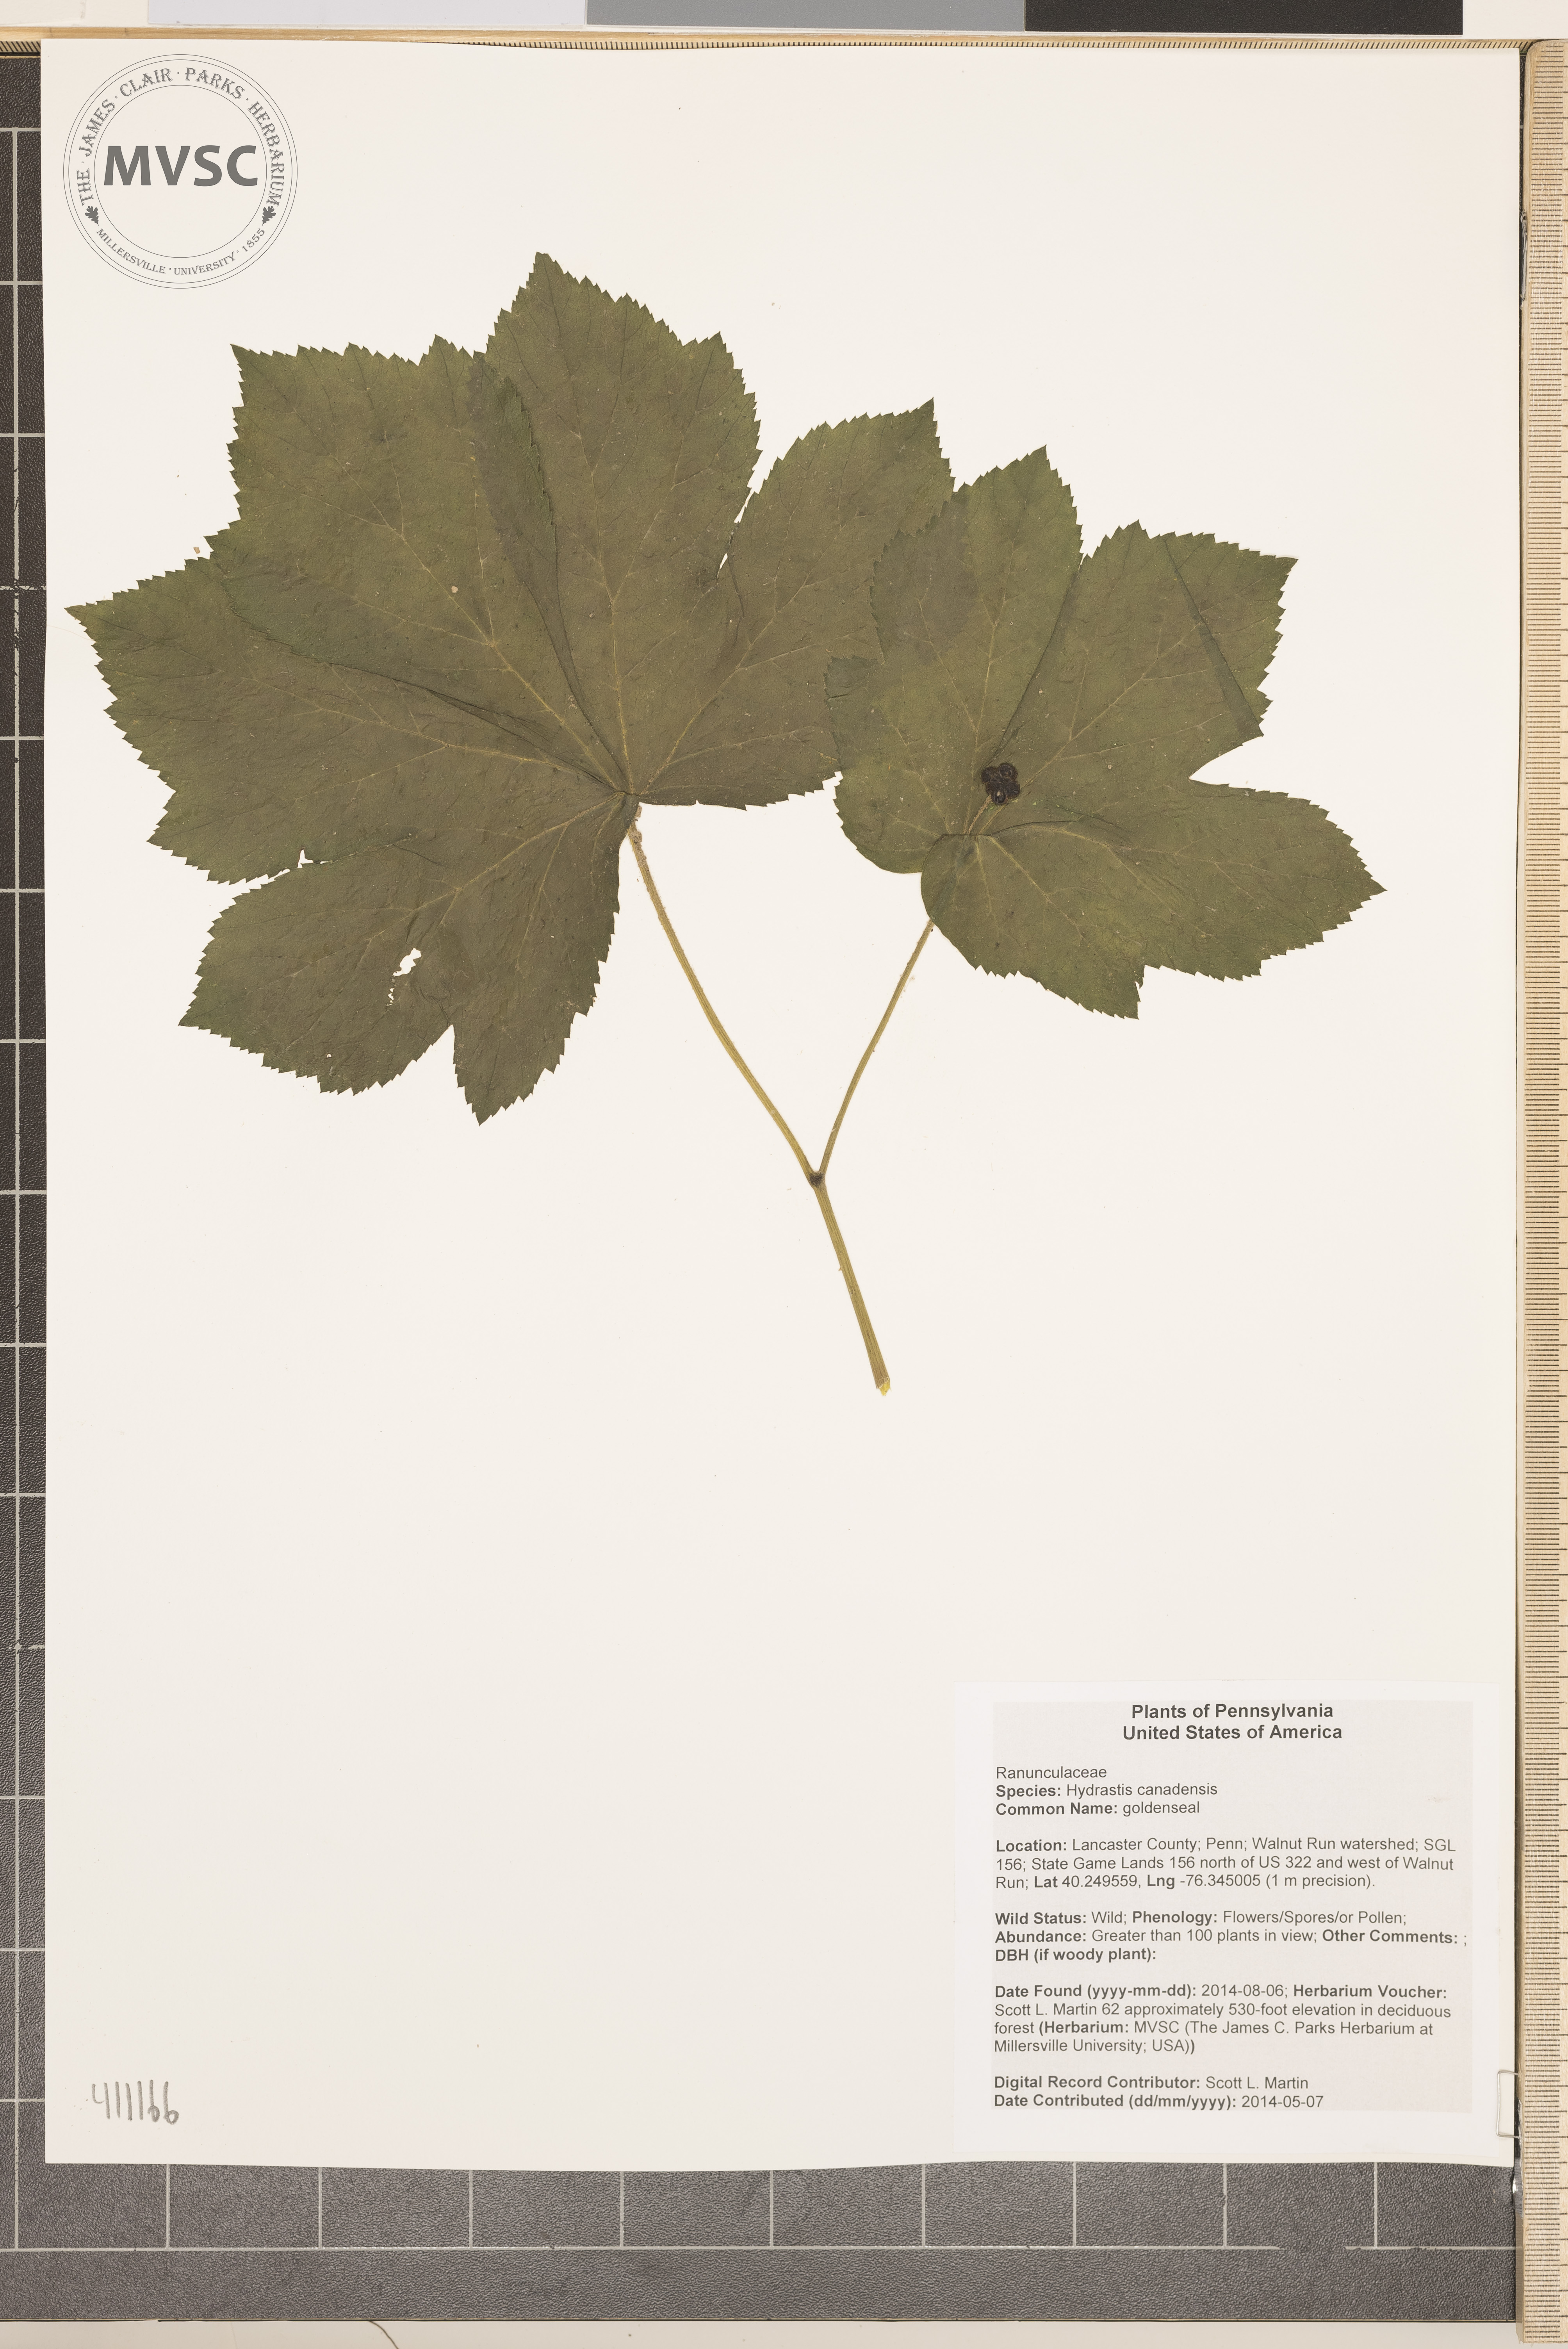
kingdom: Plantae
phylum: Tracheophyta
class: Magnoliopsida
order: Ranunculales
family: Ranunculaceae
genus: Hydrastis
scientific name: Hydrastis canadensis
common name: goldenseal
